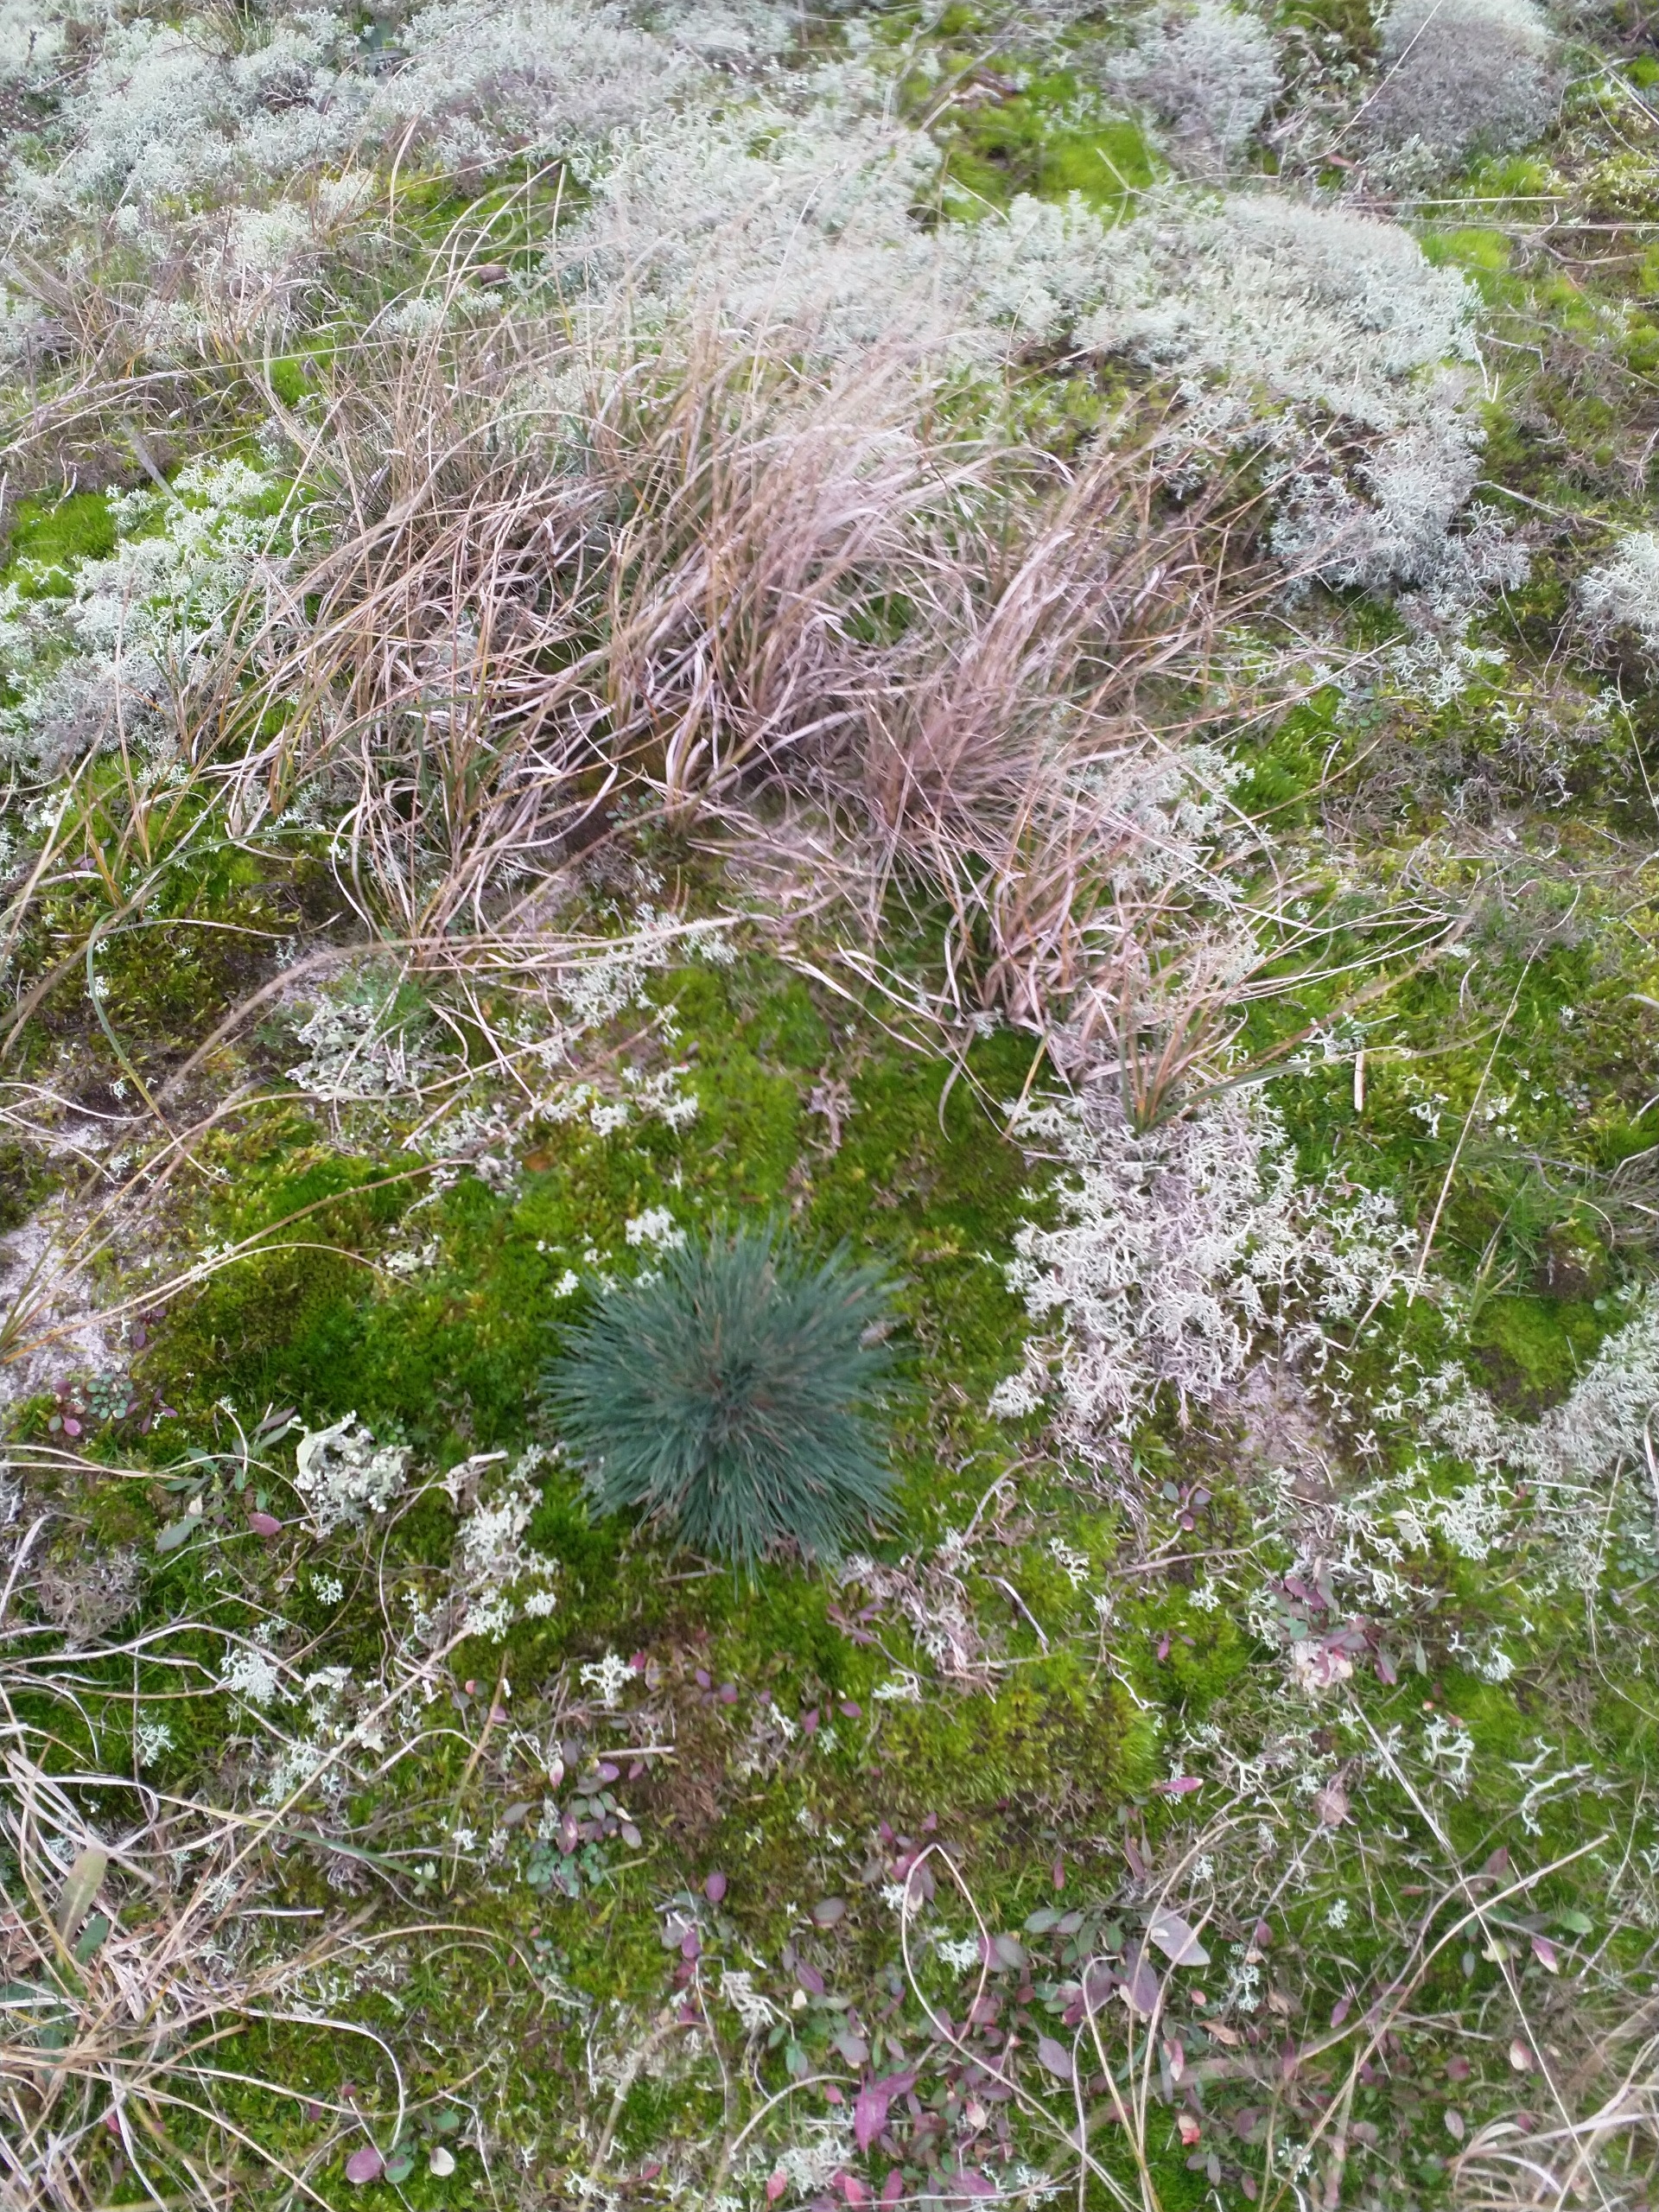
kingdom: Plantae
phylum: Tracheophyta
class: Liliopsida
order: Poales
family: Poaceae
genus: Corynephorus
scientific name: Corynephorus canescens
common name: Sandskæg
